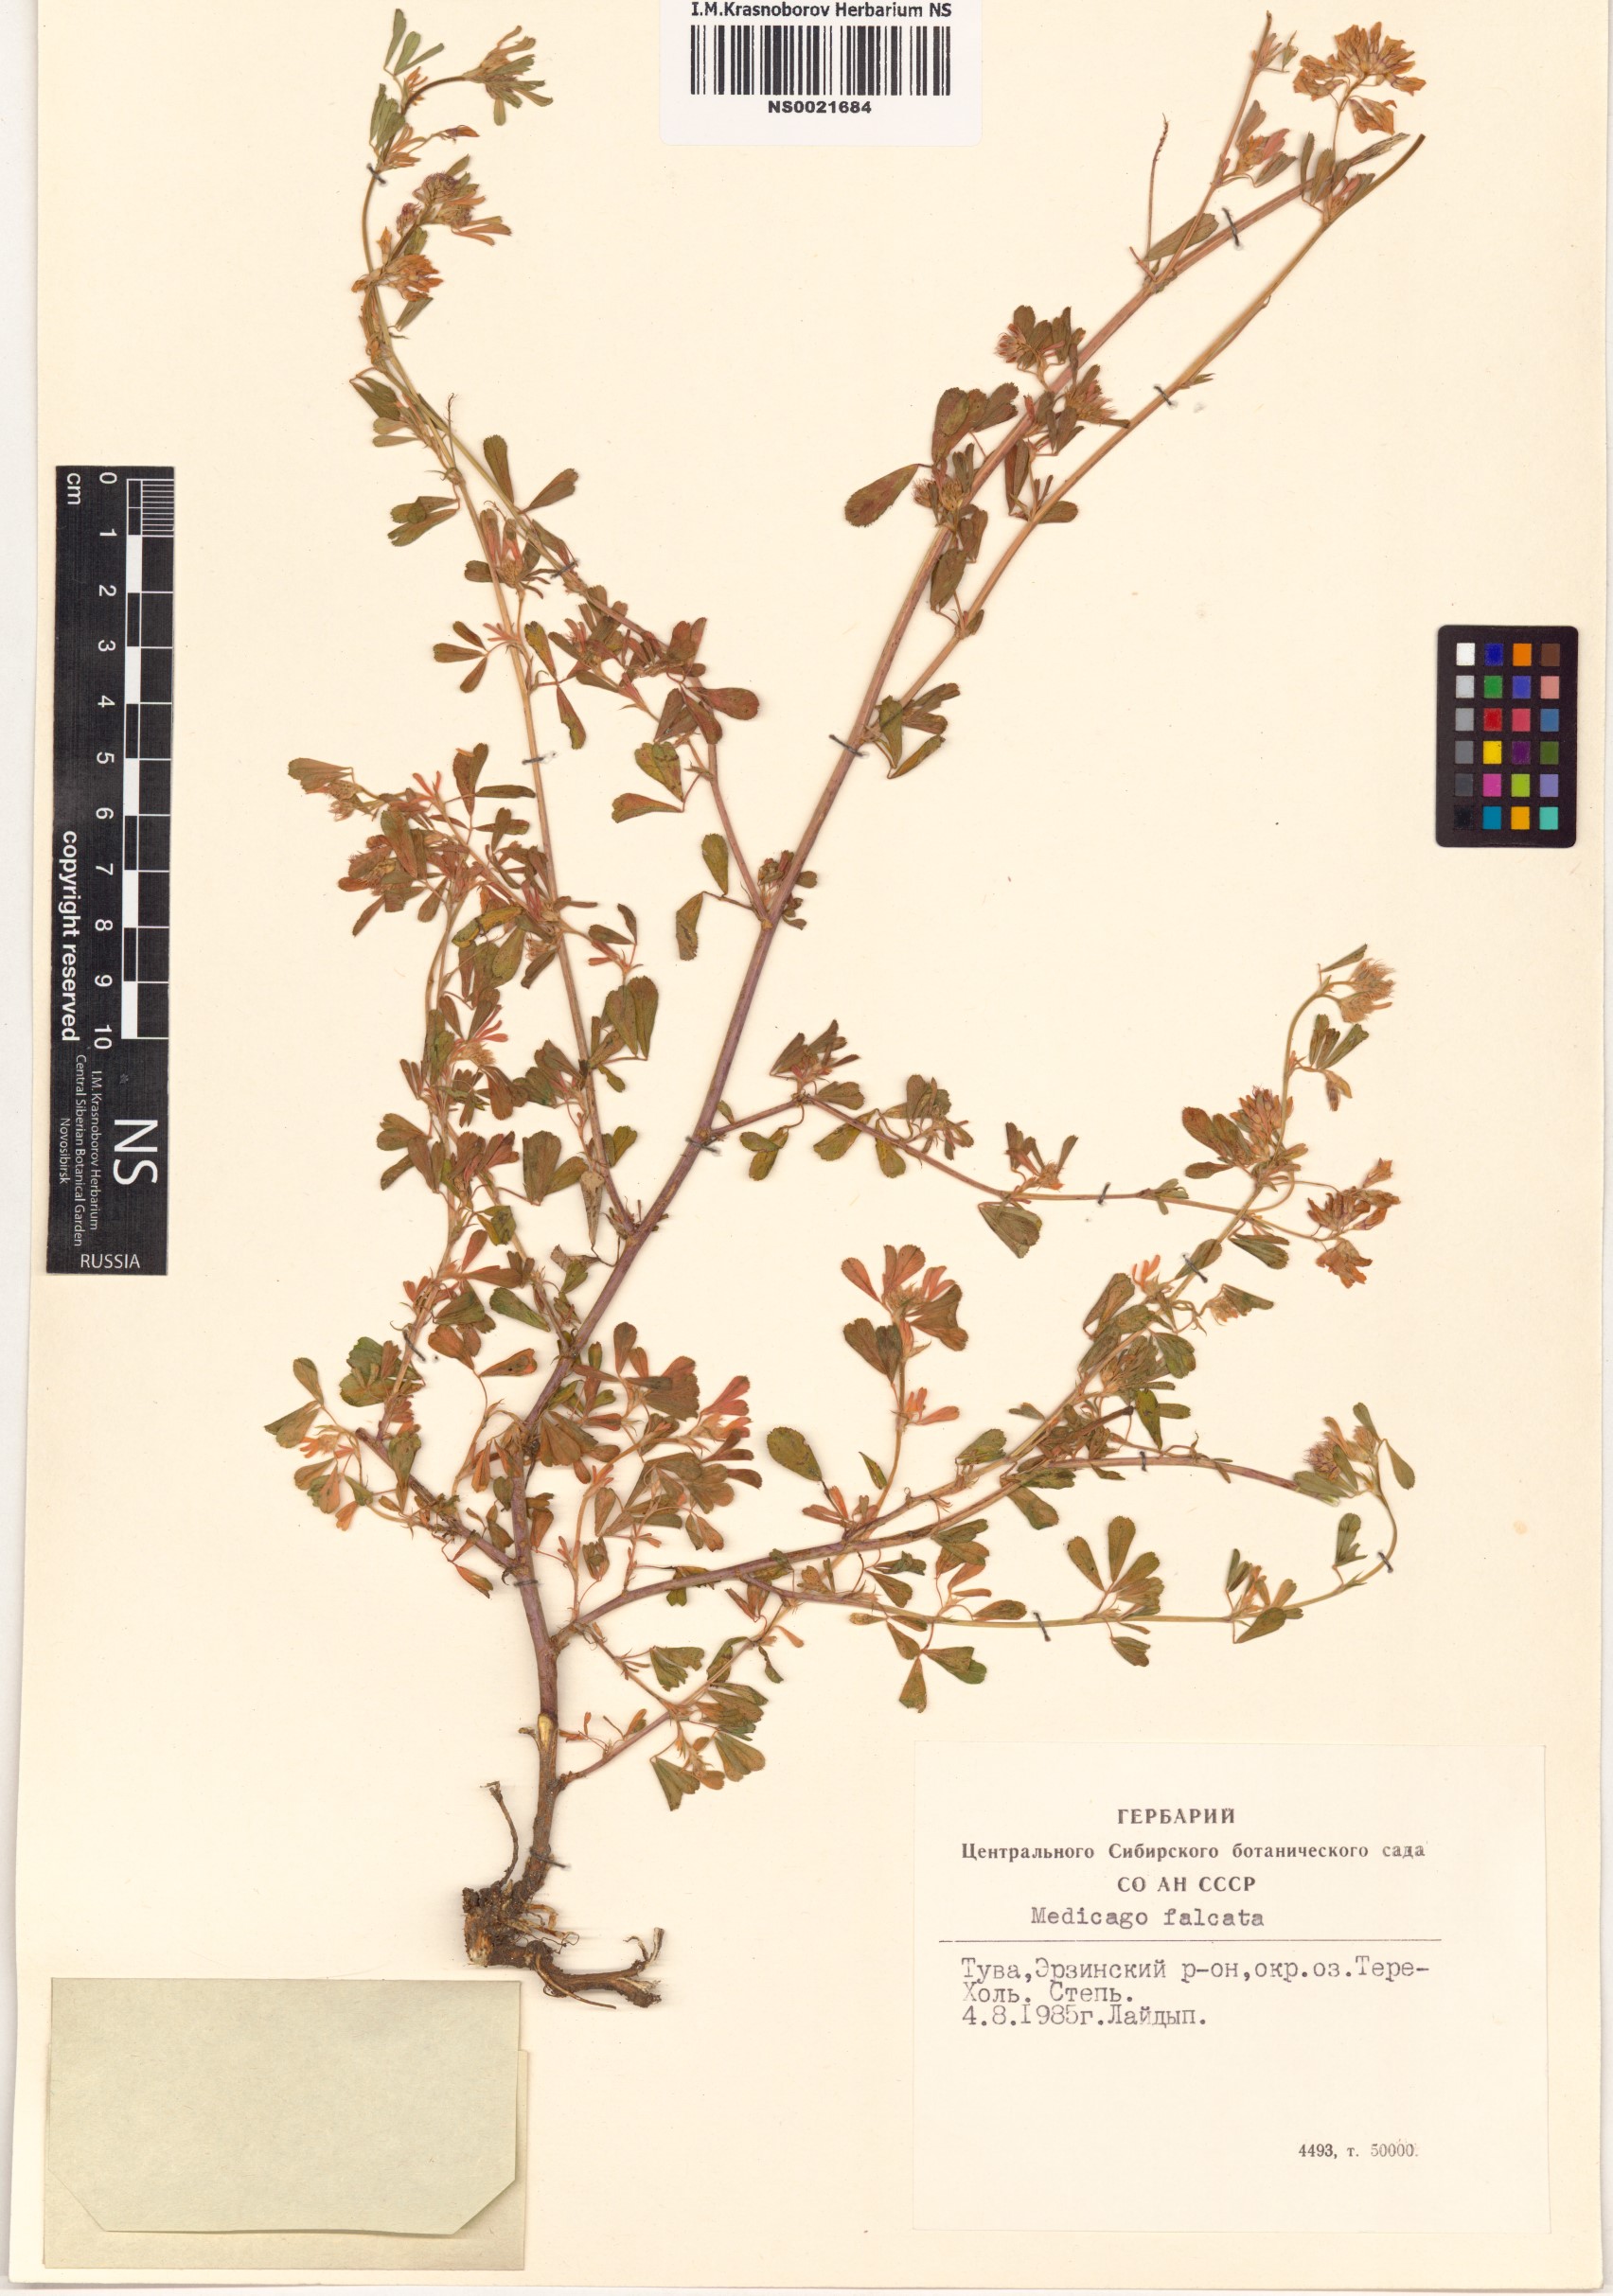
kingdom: Plantae
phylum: Tracheophyta
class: Magnoliopsida
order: Fabales
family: Fabaceae
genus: Medicago
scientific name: Medicago falcata
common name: Sickle medick
